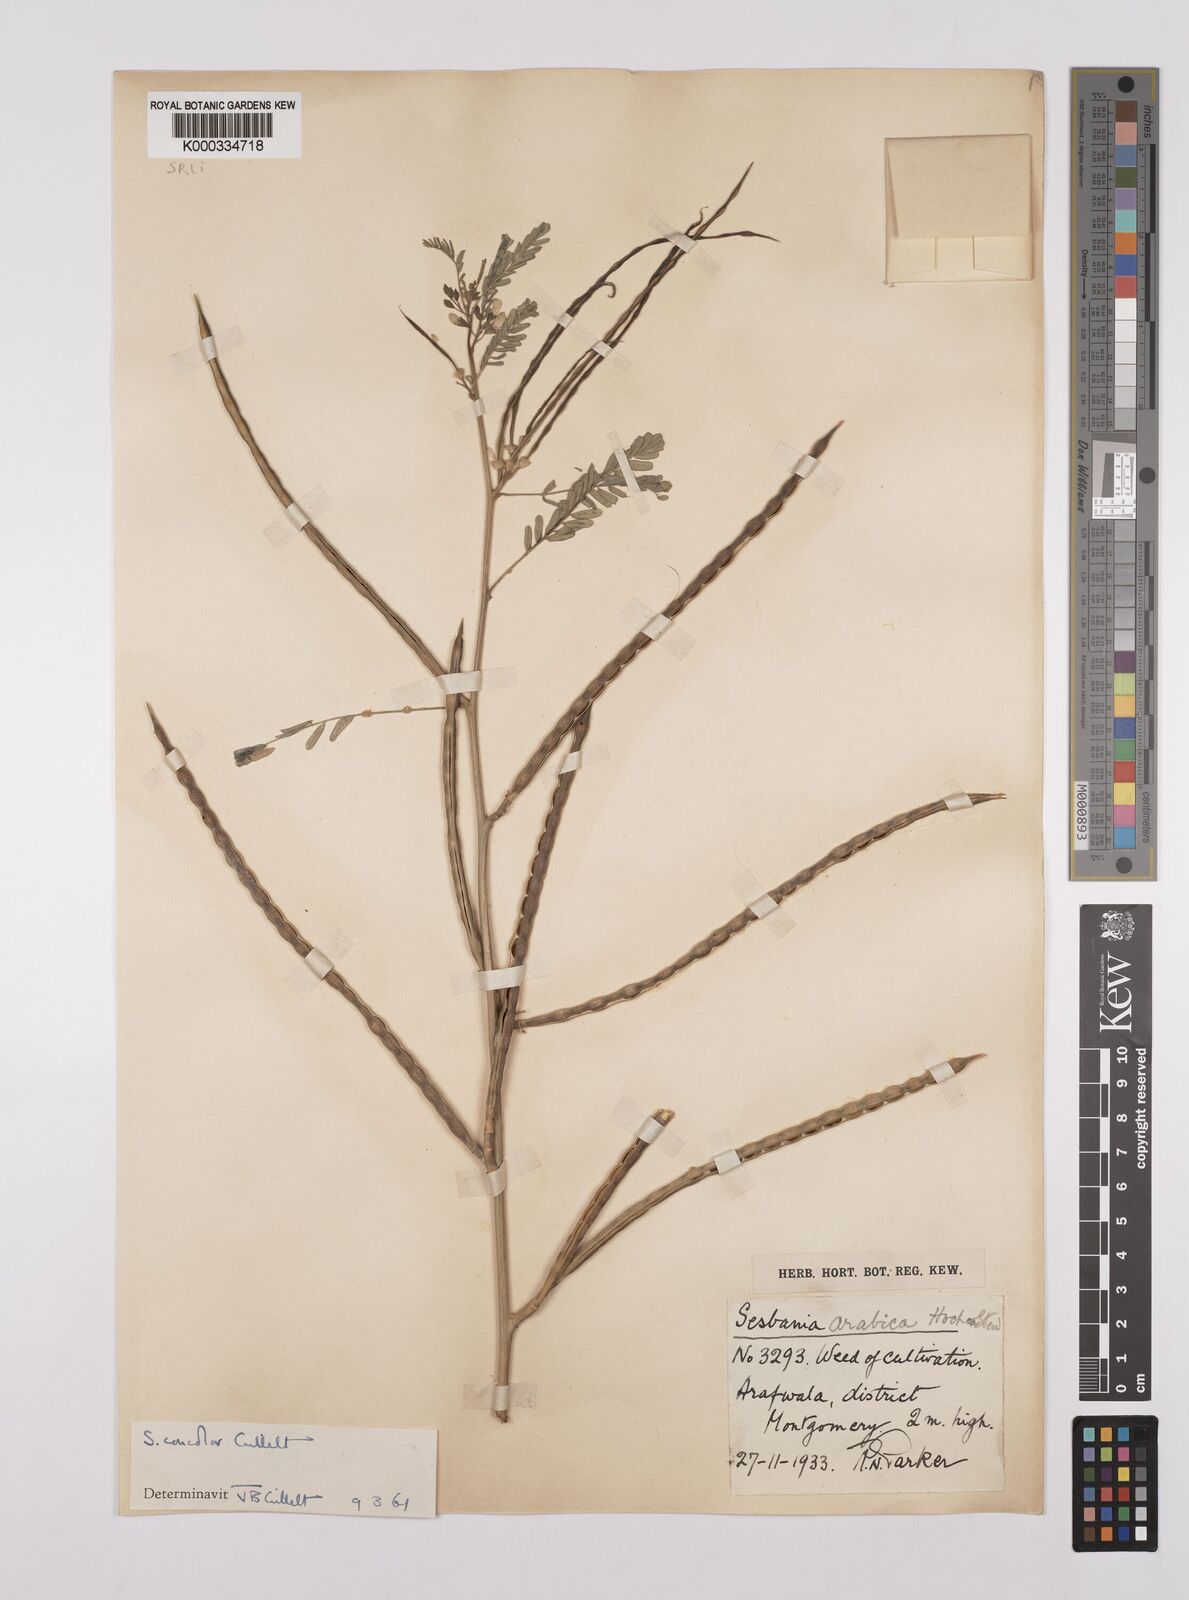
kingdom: Plantae
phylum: Tracheophyta
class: Magnoliopsida
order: Fabales
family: Fabaceae
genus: Sesbania
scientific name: Sesbania concolor
